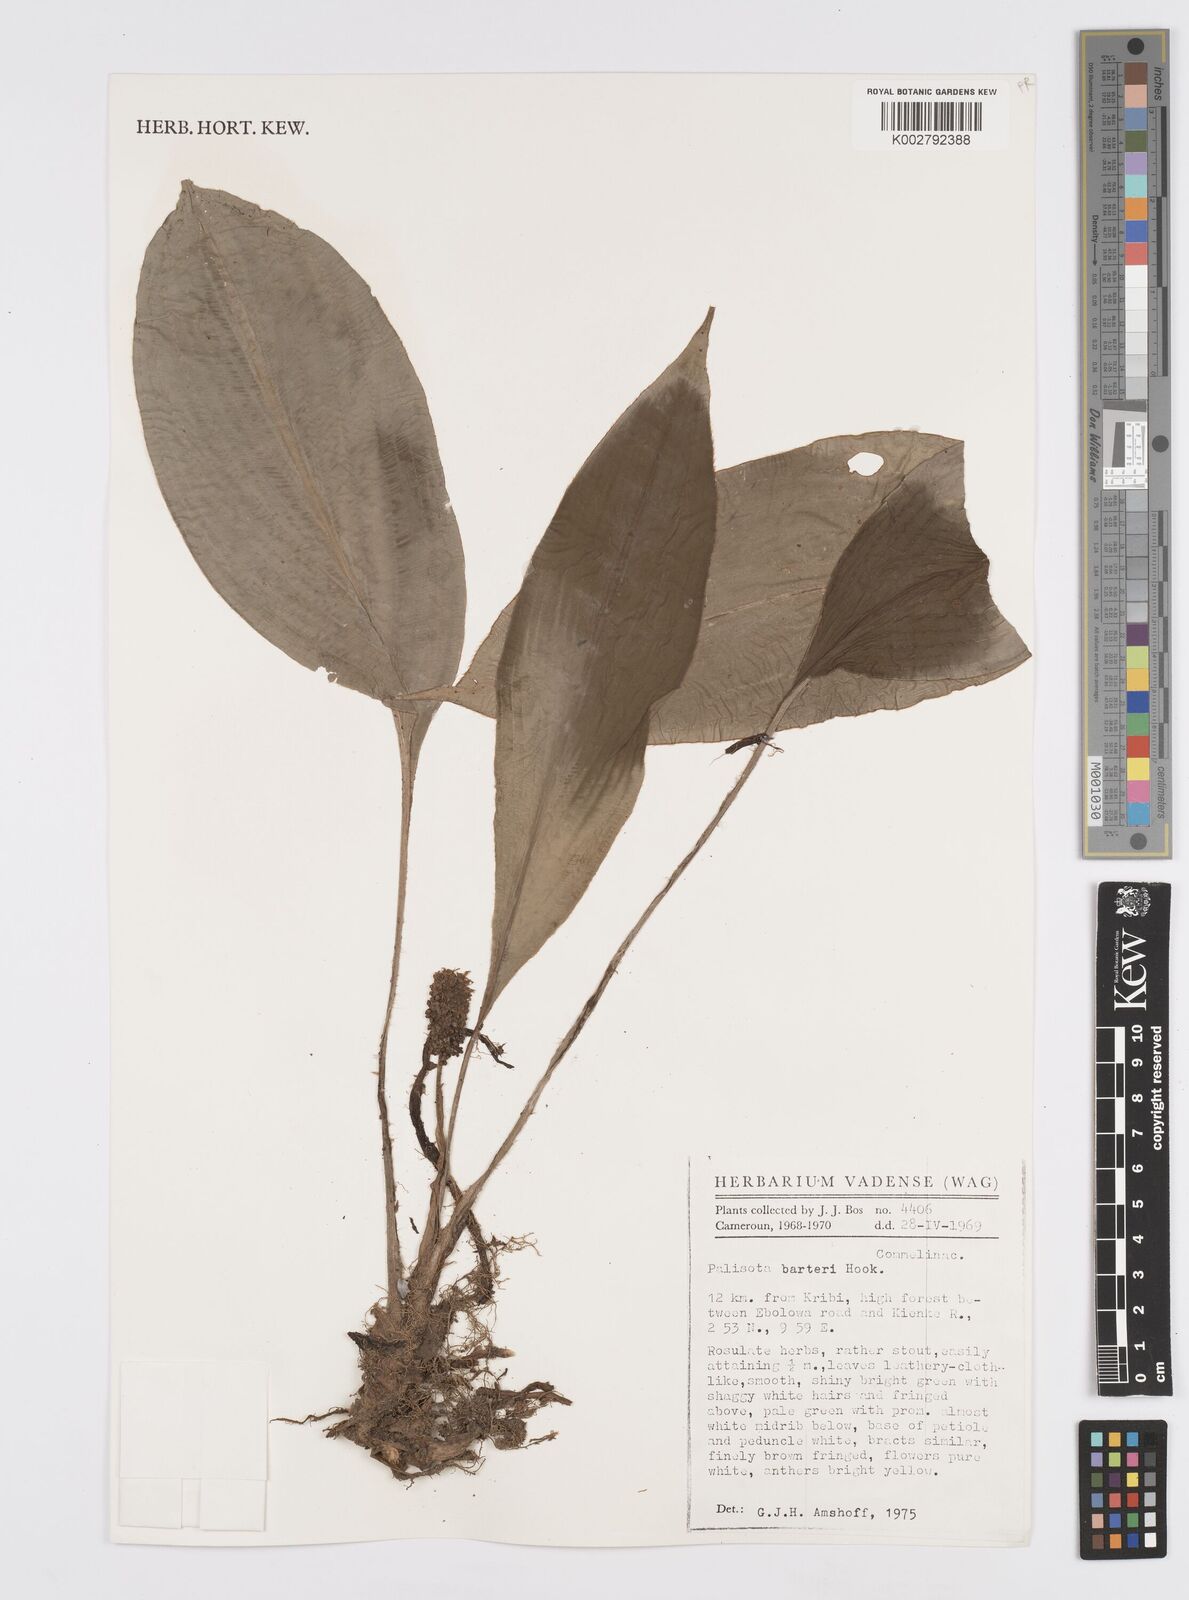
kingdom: Plantae
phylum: Tracheophyta
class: Liliopsida
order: Commelinales
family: Commelinaceae
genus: Palisota
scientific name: Palisota barteri
